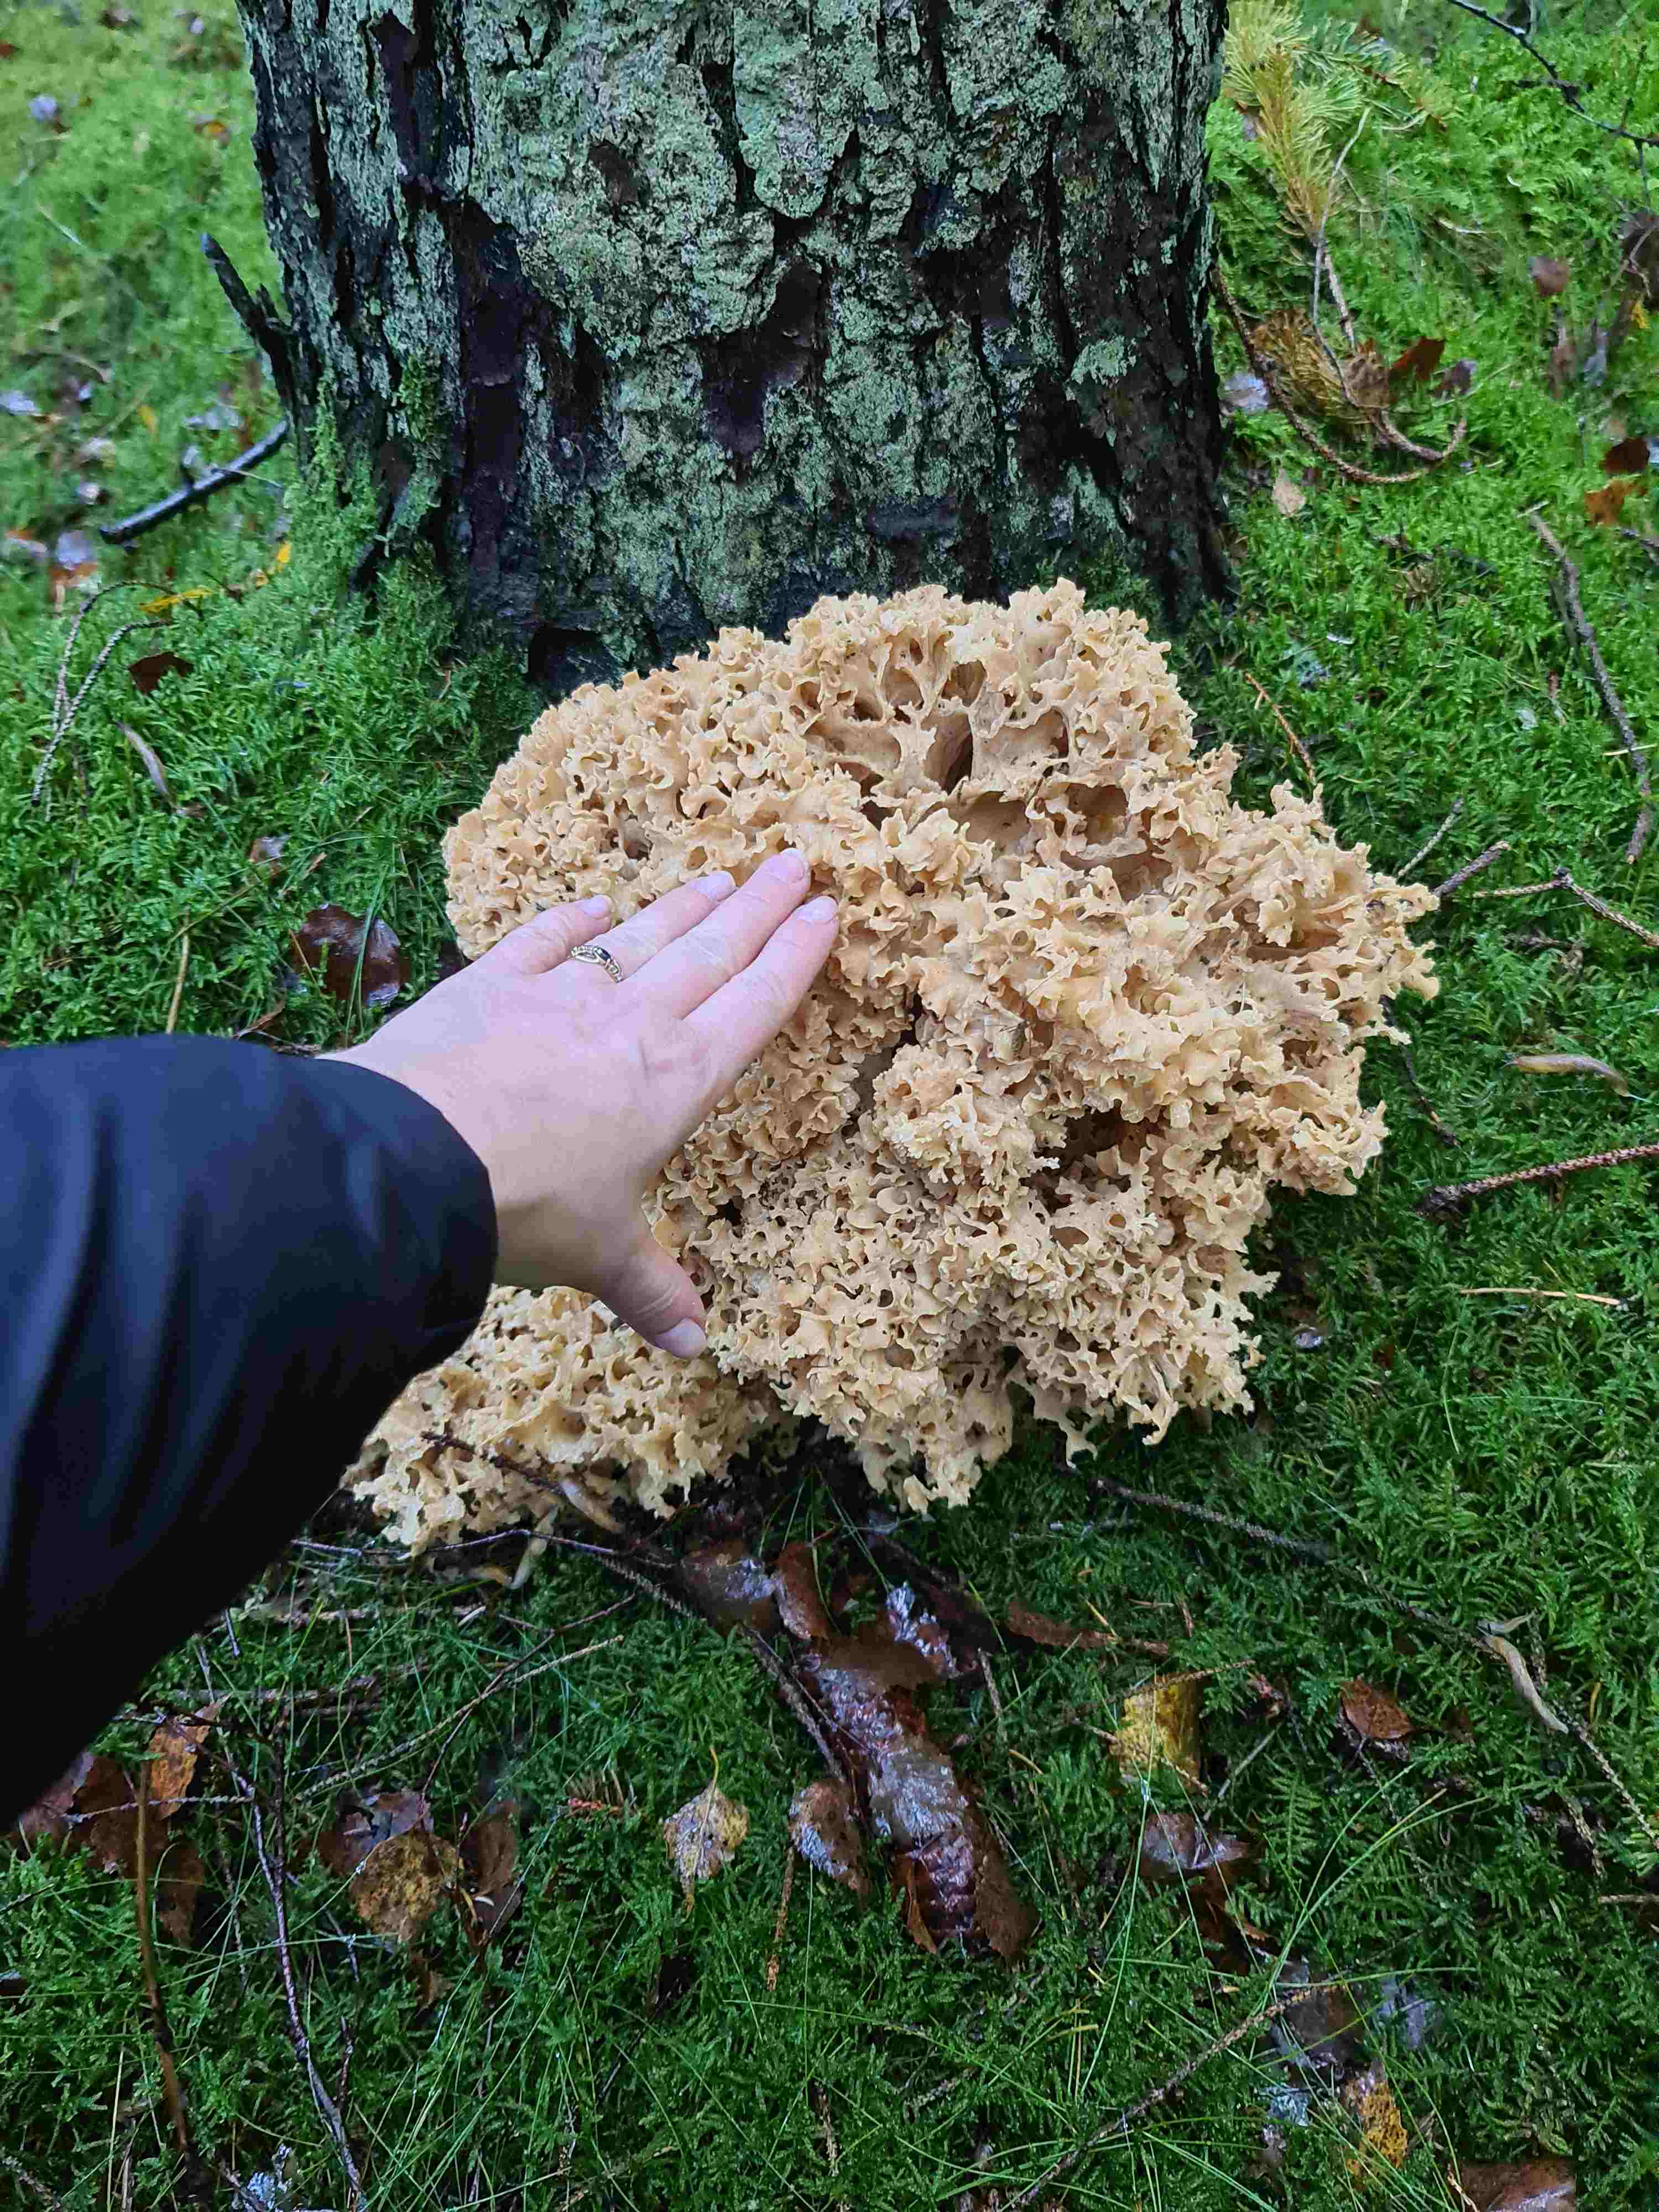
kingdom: Fungi
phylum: Basidiomycota
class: Agaricomycetes
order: Polyporales
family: Sparassidaceae
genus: Sparassis
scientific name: Sparassis crispa
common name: kruset blomkålssvamp
